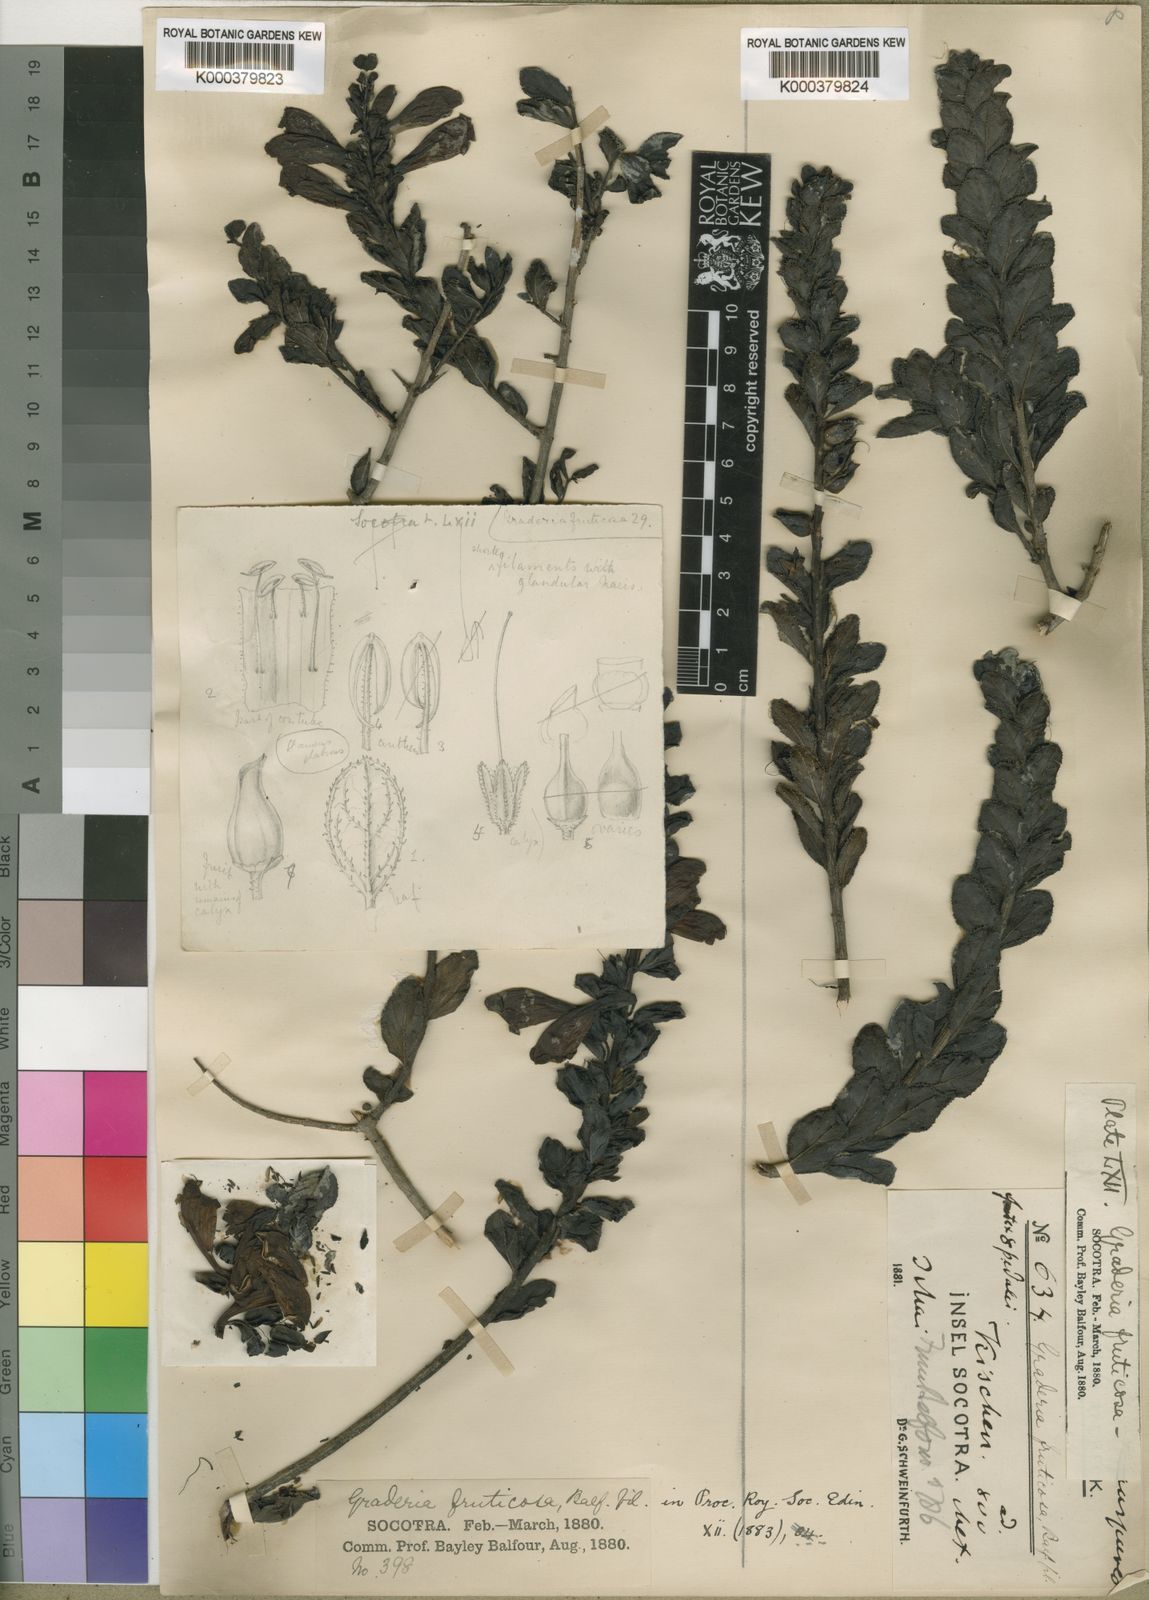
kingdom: Plantae
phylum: Tracheophyta
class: Magnoliopsida
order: Lamiales
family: Orobanchaceae
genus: Graderia
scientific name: Graderia fruticosa
